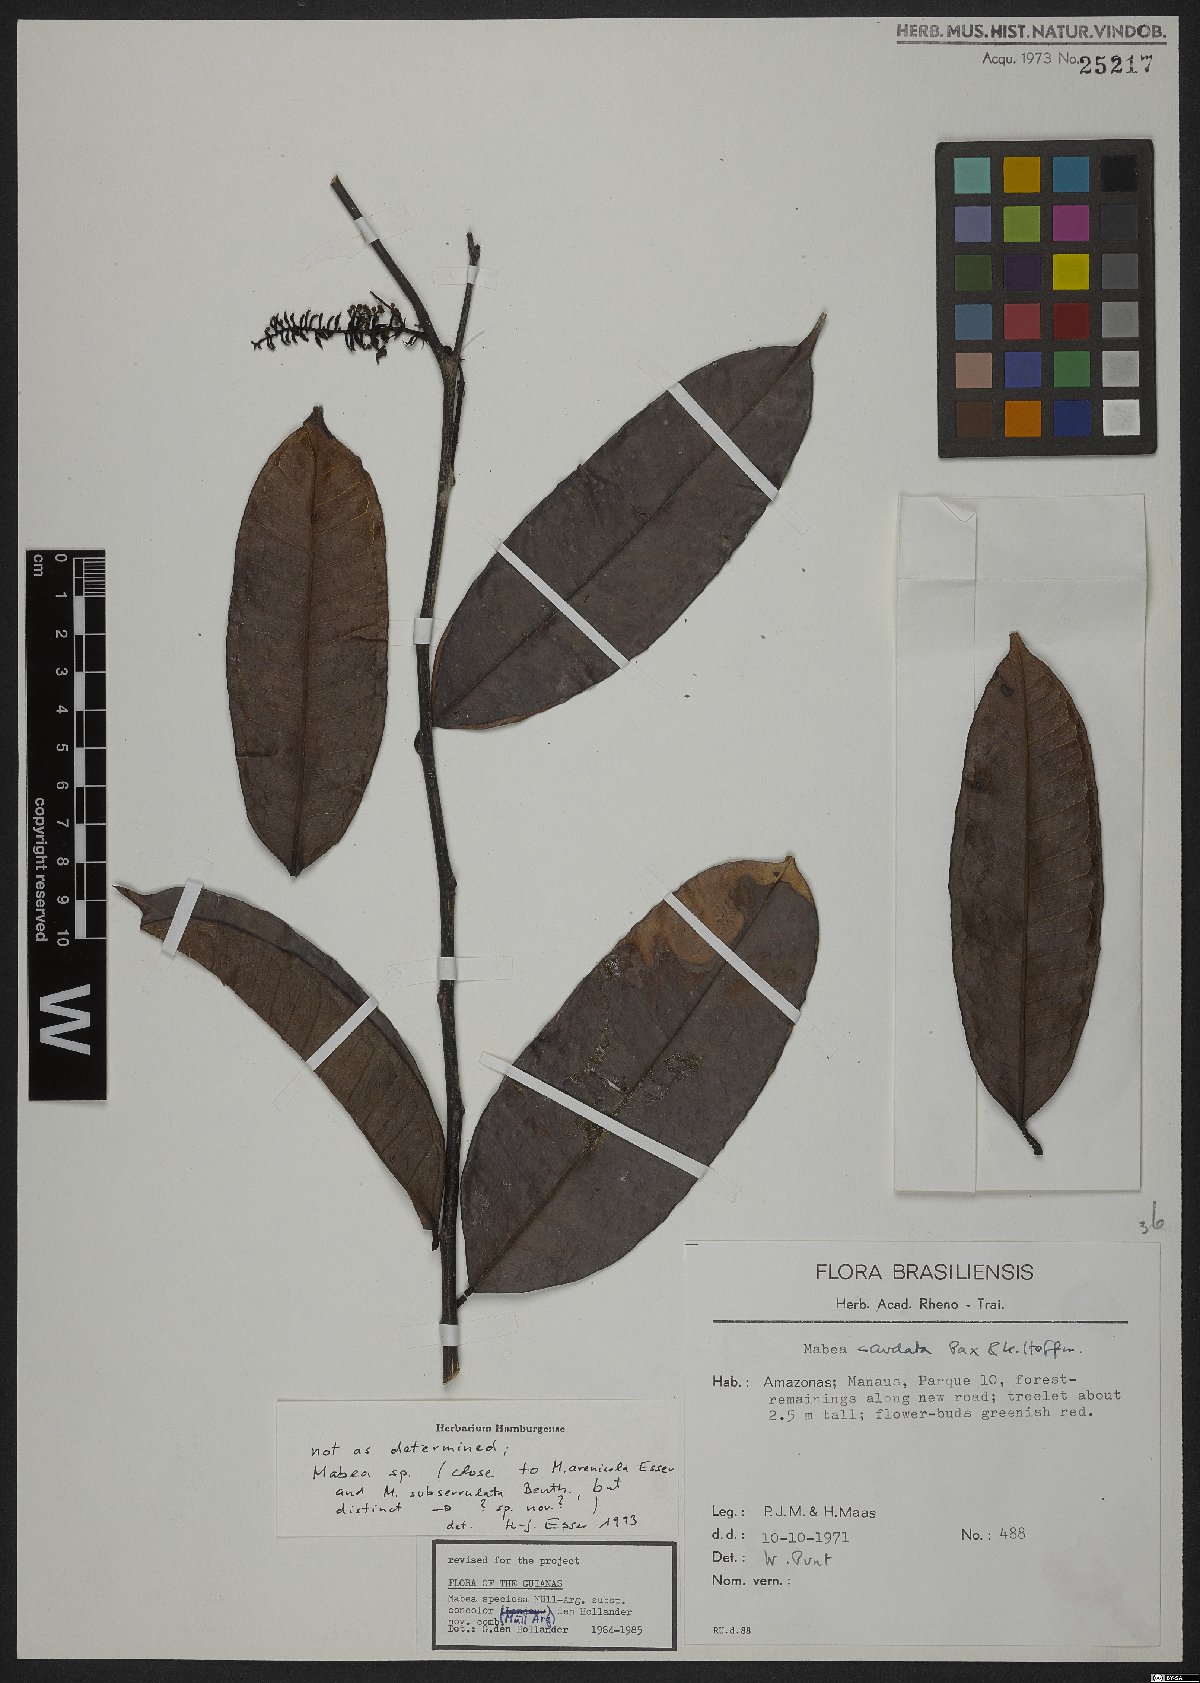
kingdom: Plantae
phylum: Tracheophyta
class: Magnoliopsida
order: Malpighiales
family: Euphorbiaceae
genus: Mabea
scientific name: Mabea
